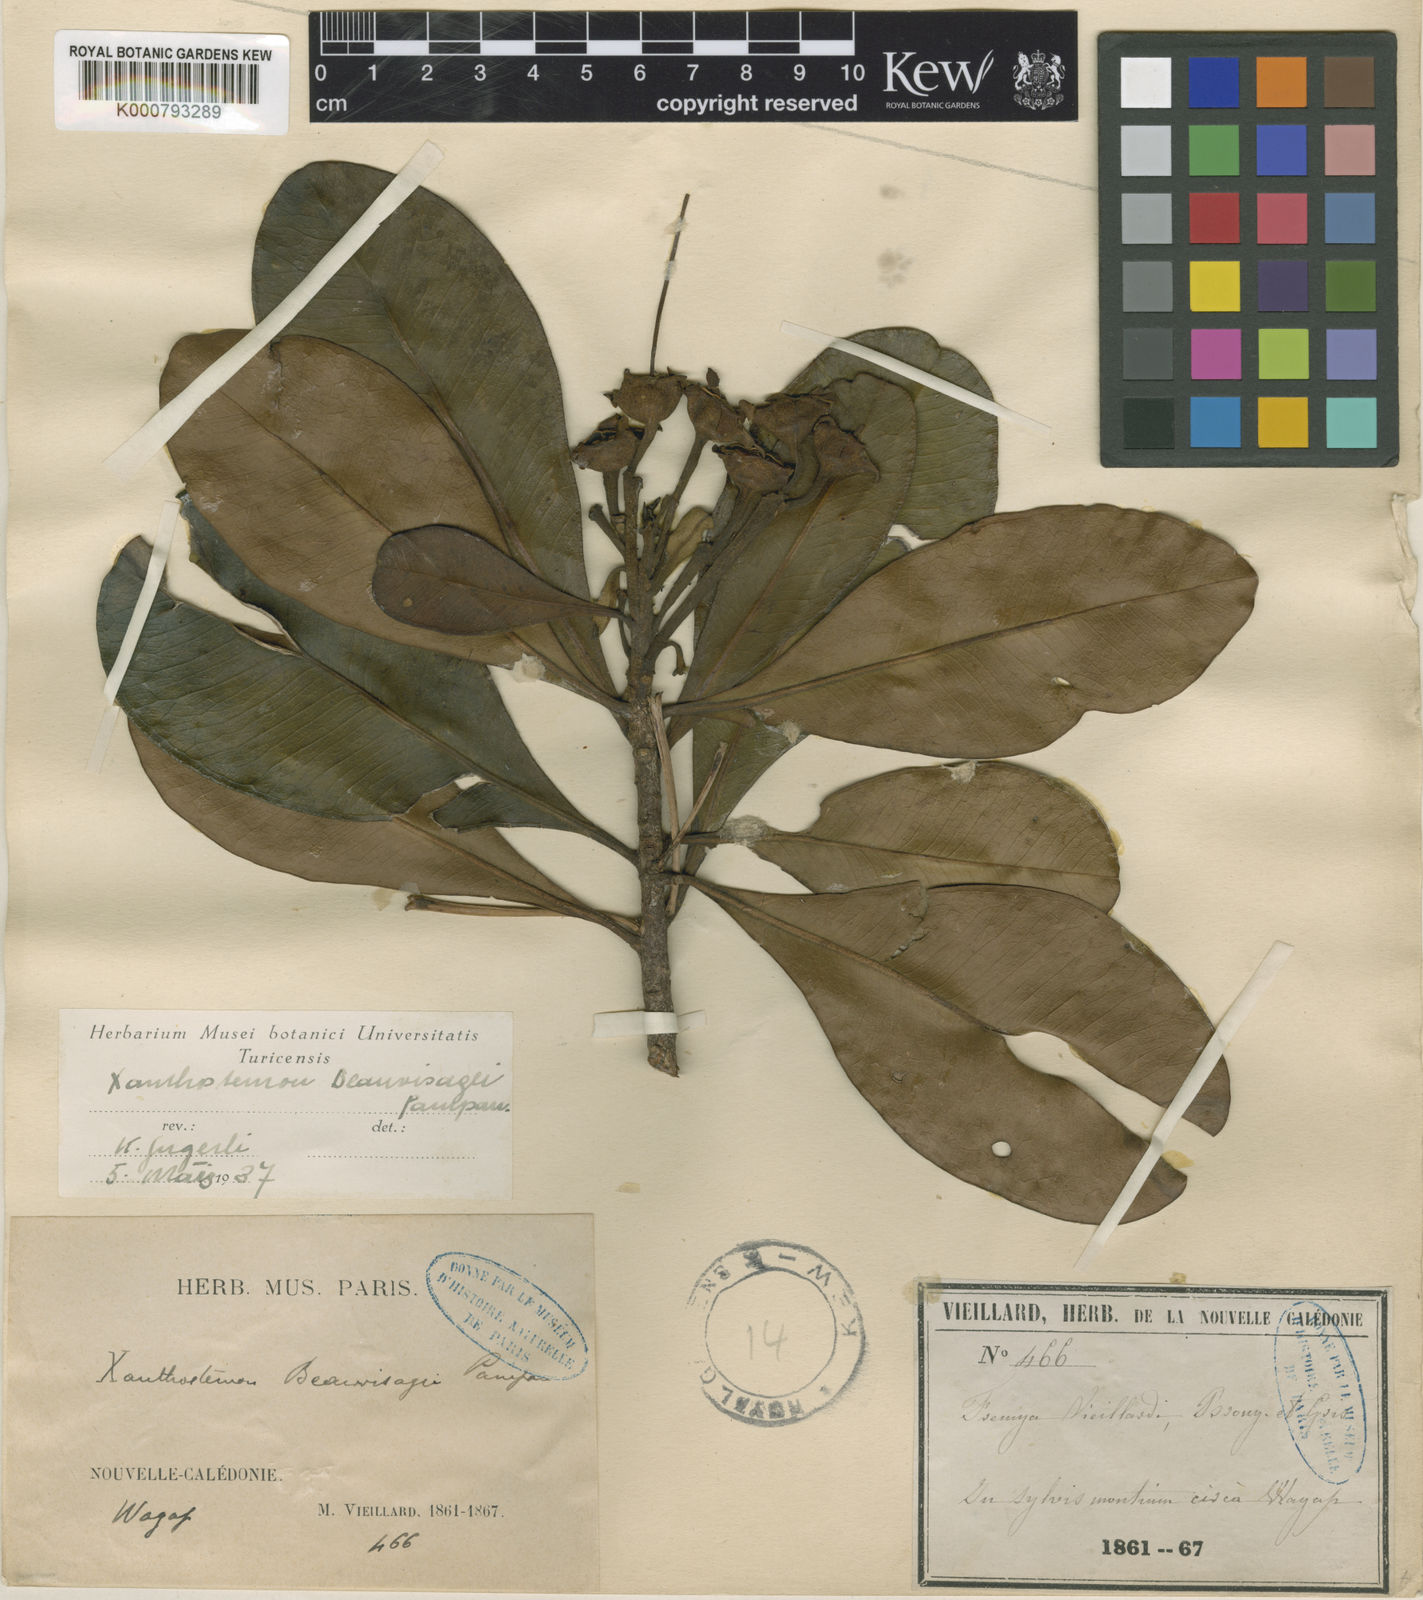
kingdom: Plantae
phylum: Tracheophyta
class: Magnoliopsida
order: Myrtales
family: Myrtaceae
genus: Xanthostemon
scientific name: Xanthostemon vieillardii
